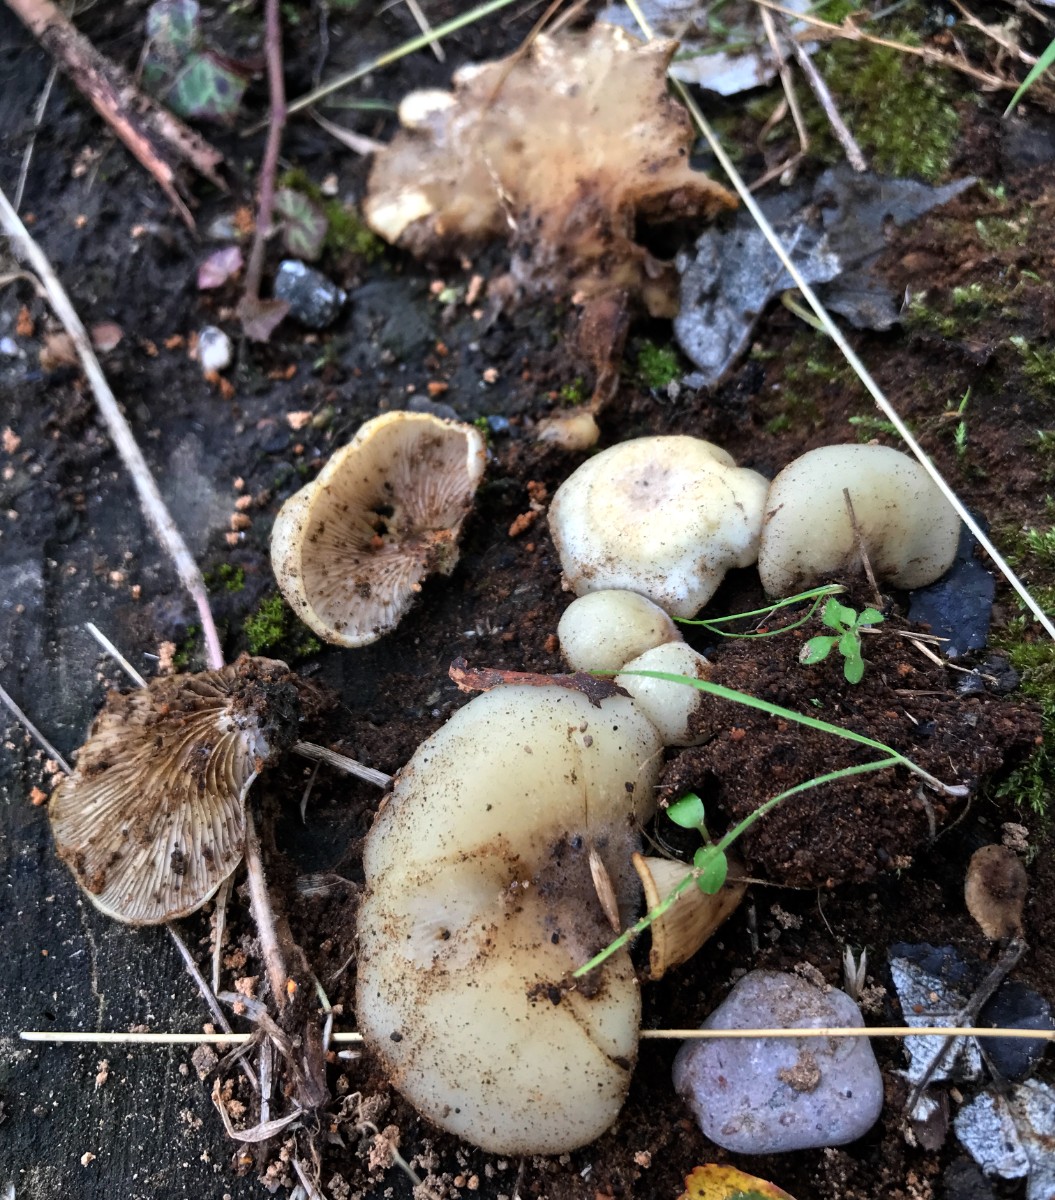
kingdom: Fungi
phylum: Basidiomycota
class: Agaricomycetes
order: Agaricales
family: Crepidotaceae
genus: Crepidotus
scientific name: Crepidotus mollis
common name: blød muslingesvamp
